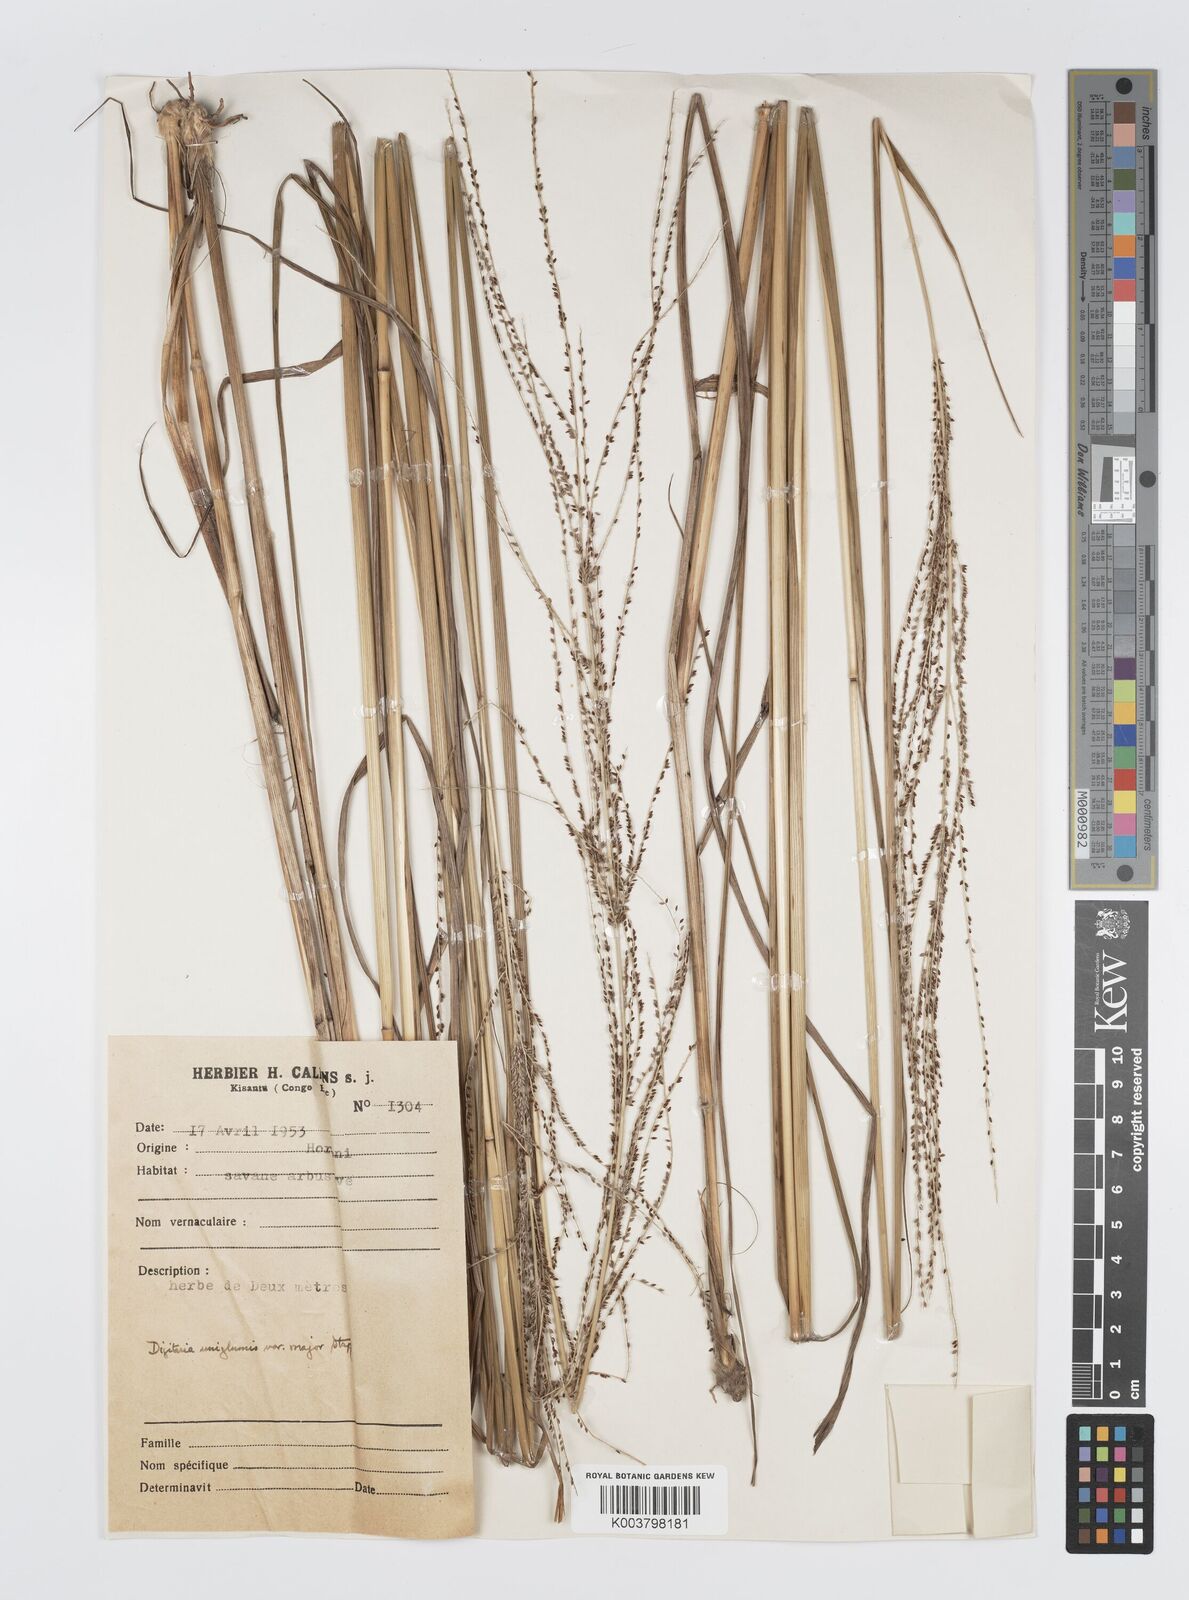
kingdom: Plantae
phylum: Tracheophyta
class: Liliopsida
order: Poales
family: Poaceae
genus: Digitaria
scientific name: Digitaria diagonalis
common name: Brown-seed finger grass
